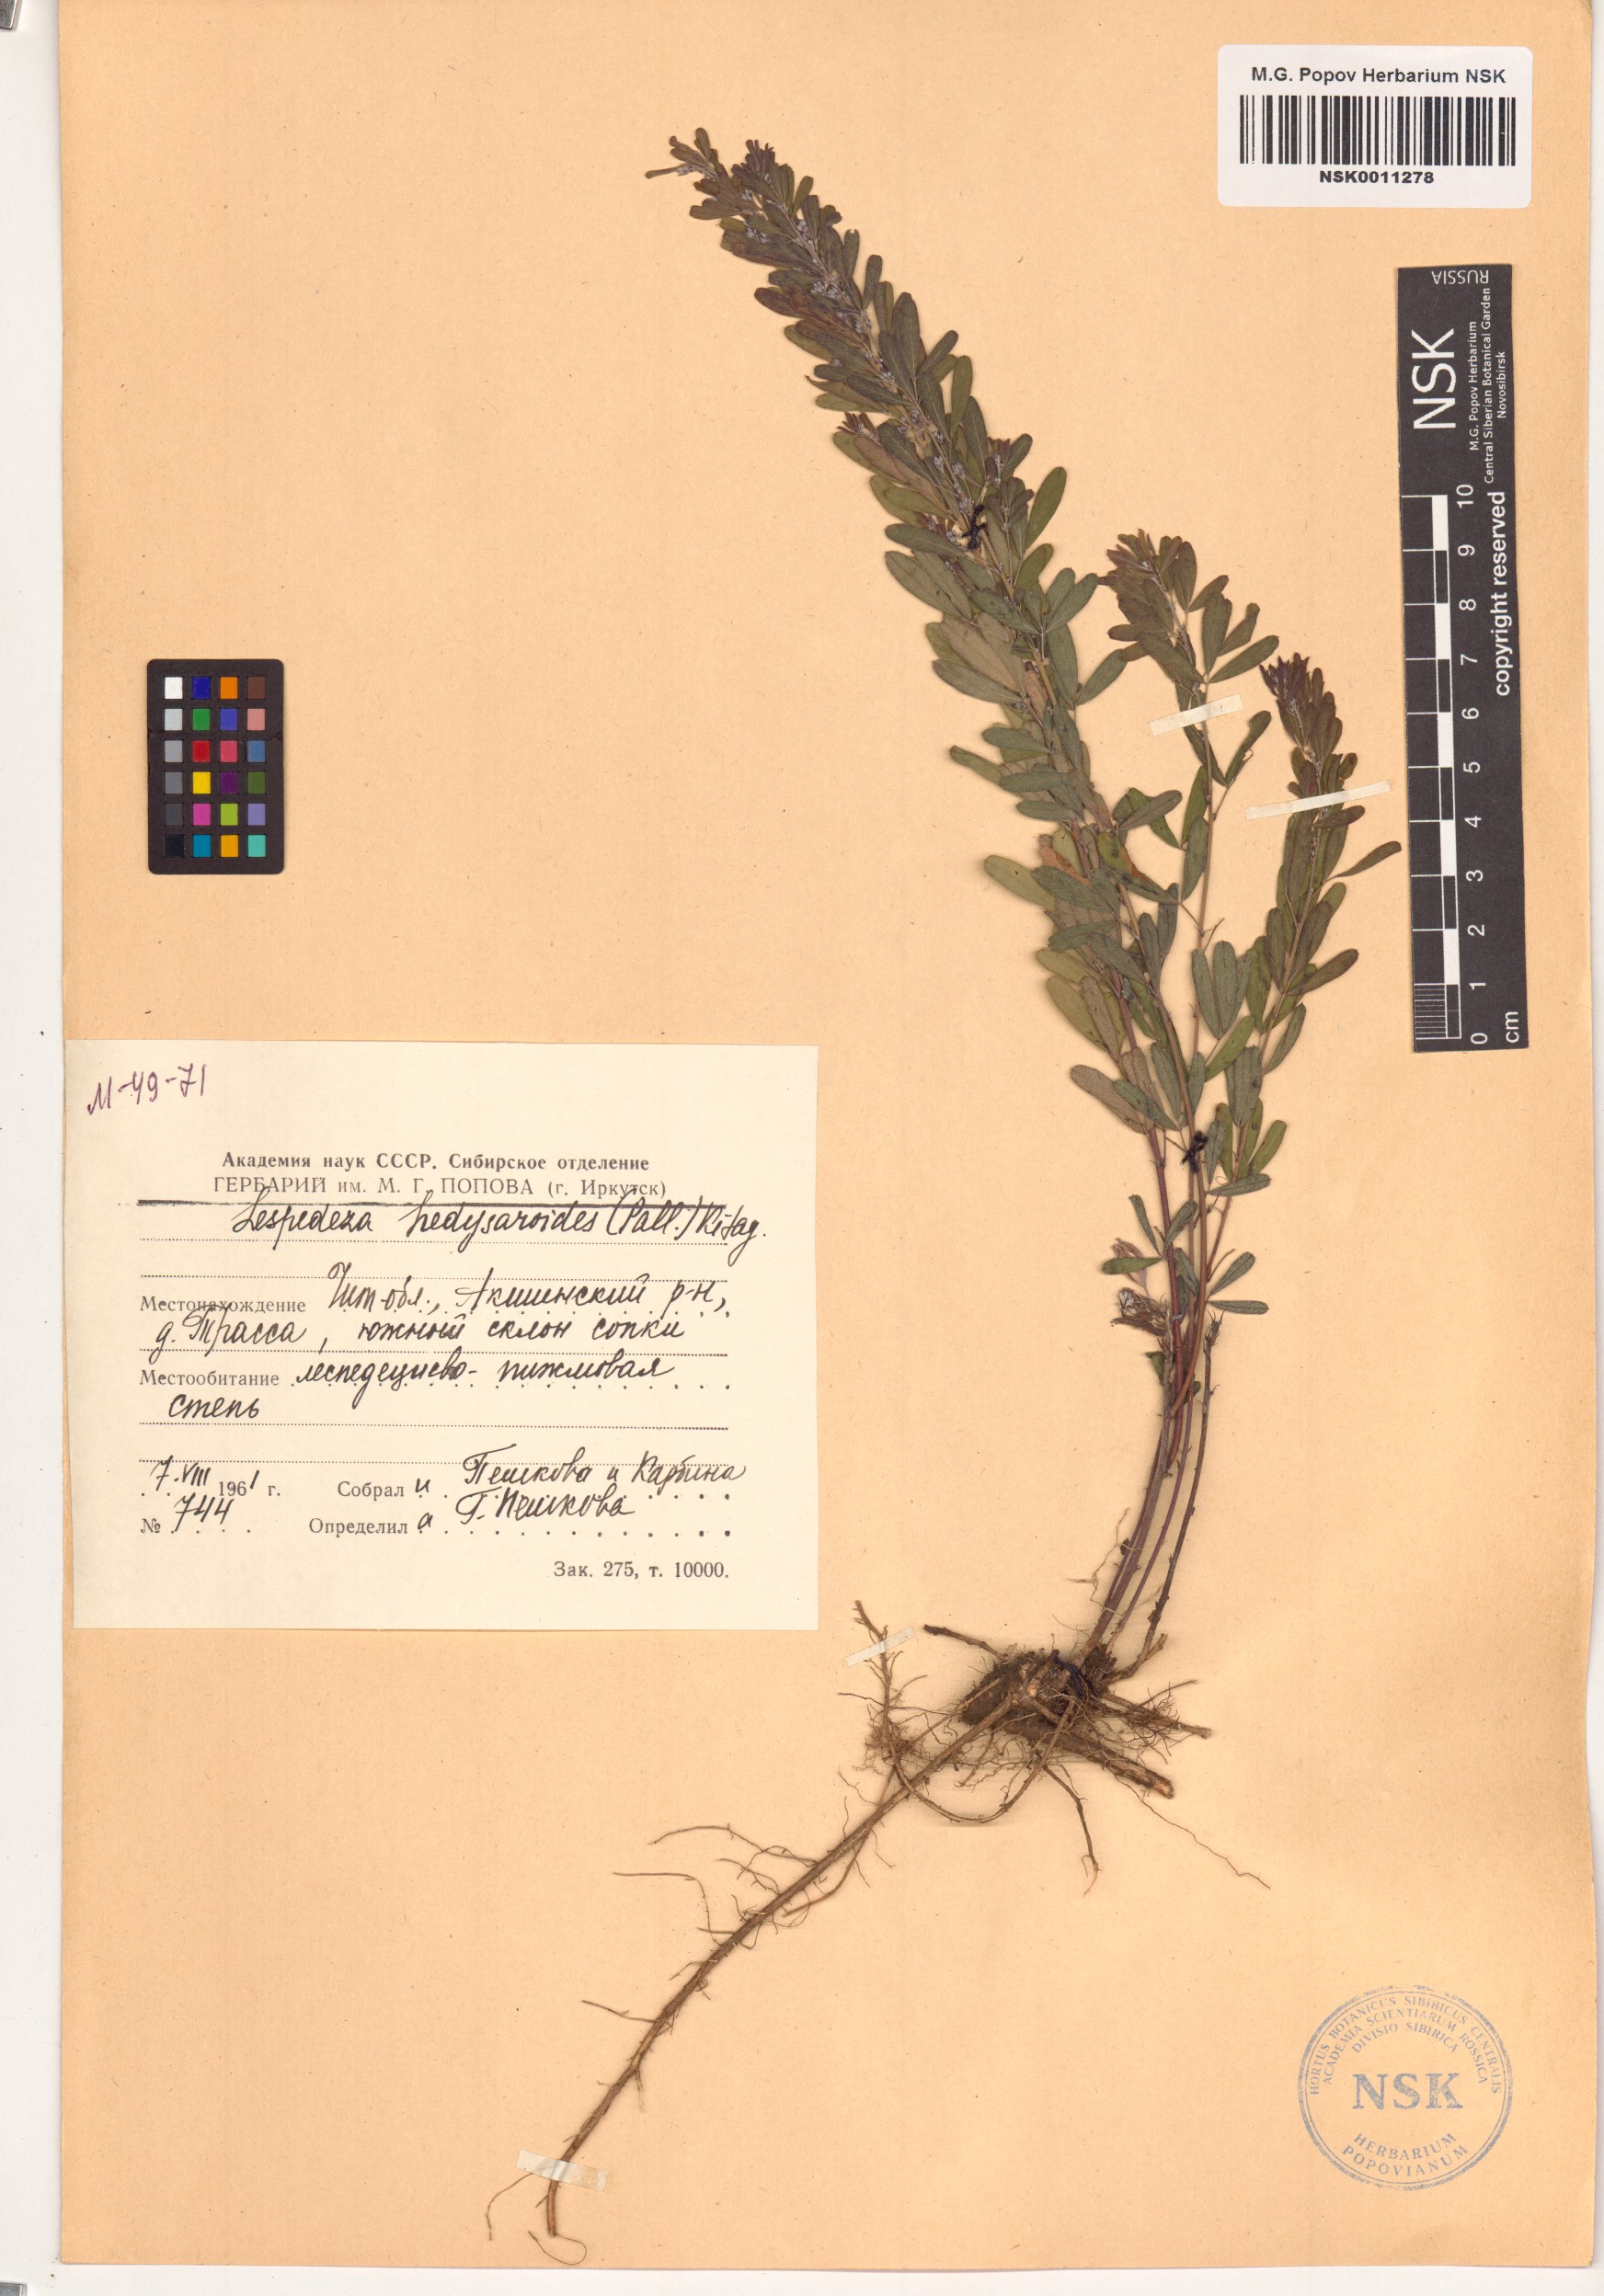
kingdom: Plantae
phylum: Tracheophyta
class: Magnoliopsida
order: Fabales
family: Fabaceae
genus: Lespedeza
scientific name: Lespedeza juncea
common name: Siberian lespedeza
